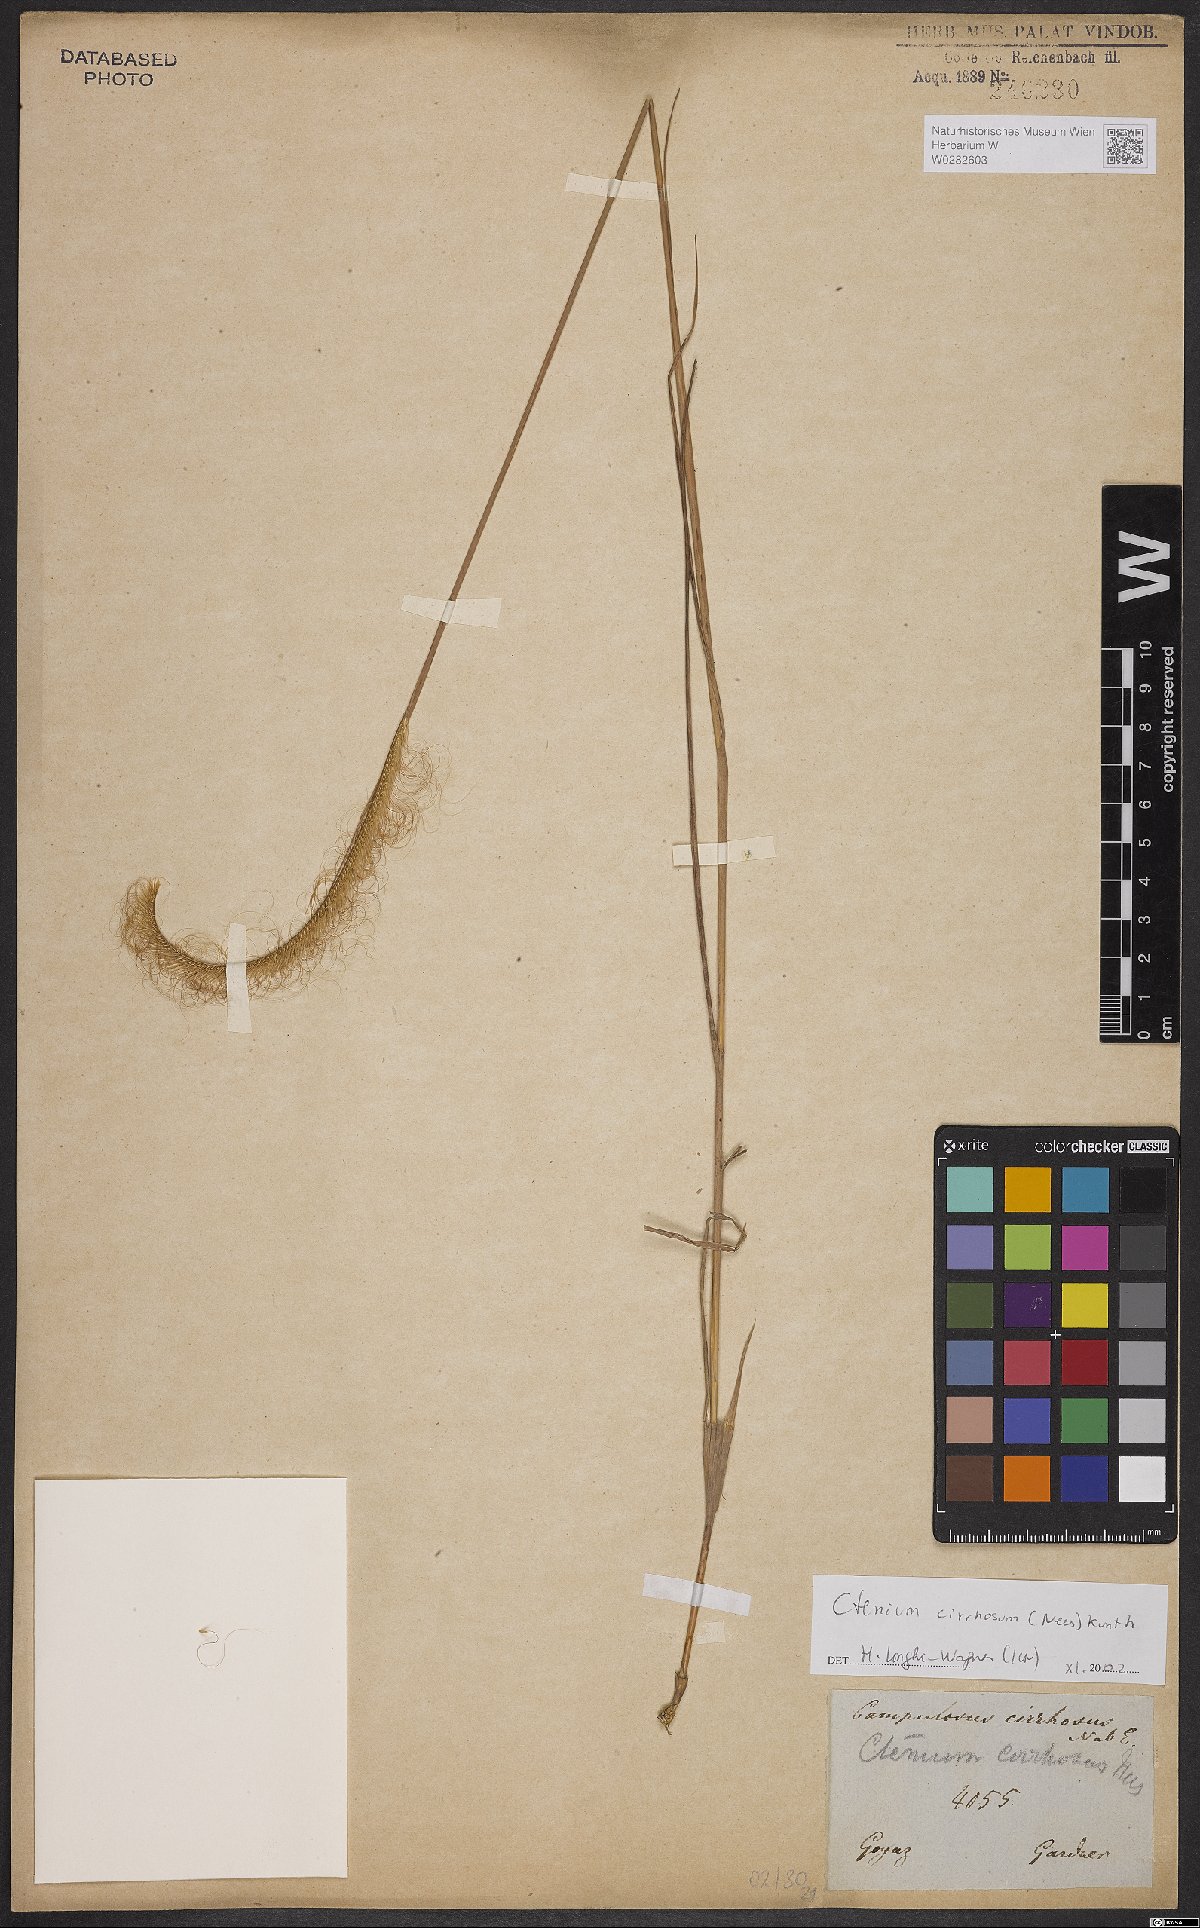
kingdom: Plantae
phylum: Tracheophyta
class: Liliopsida
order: Poales
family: Poaceae
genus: Ctenium
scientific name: Ctenium cirrhosum
